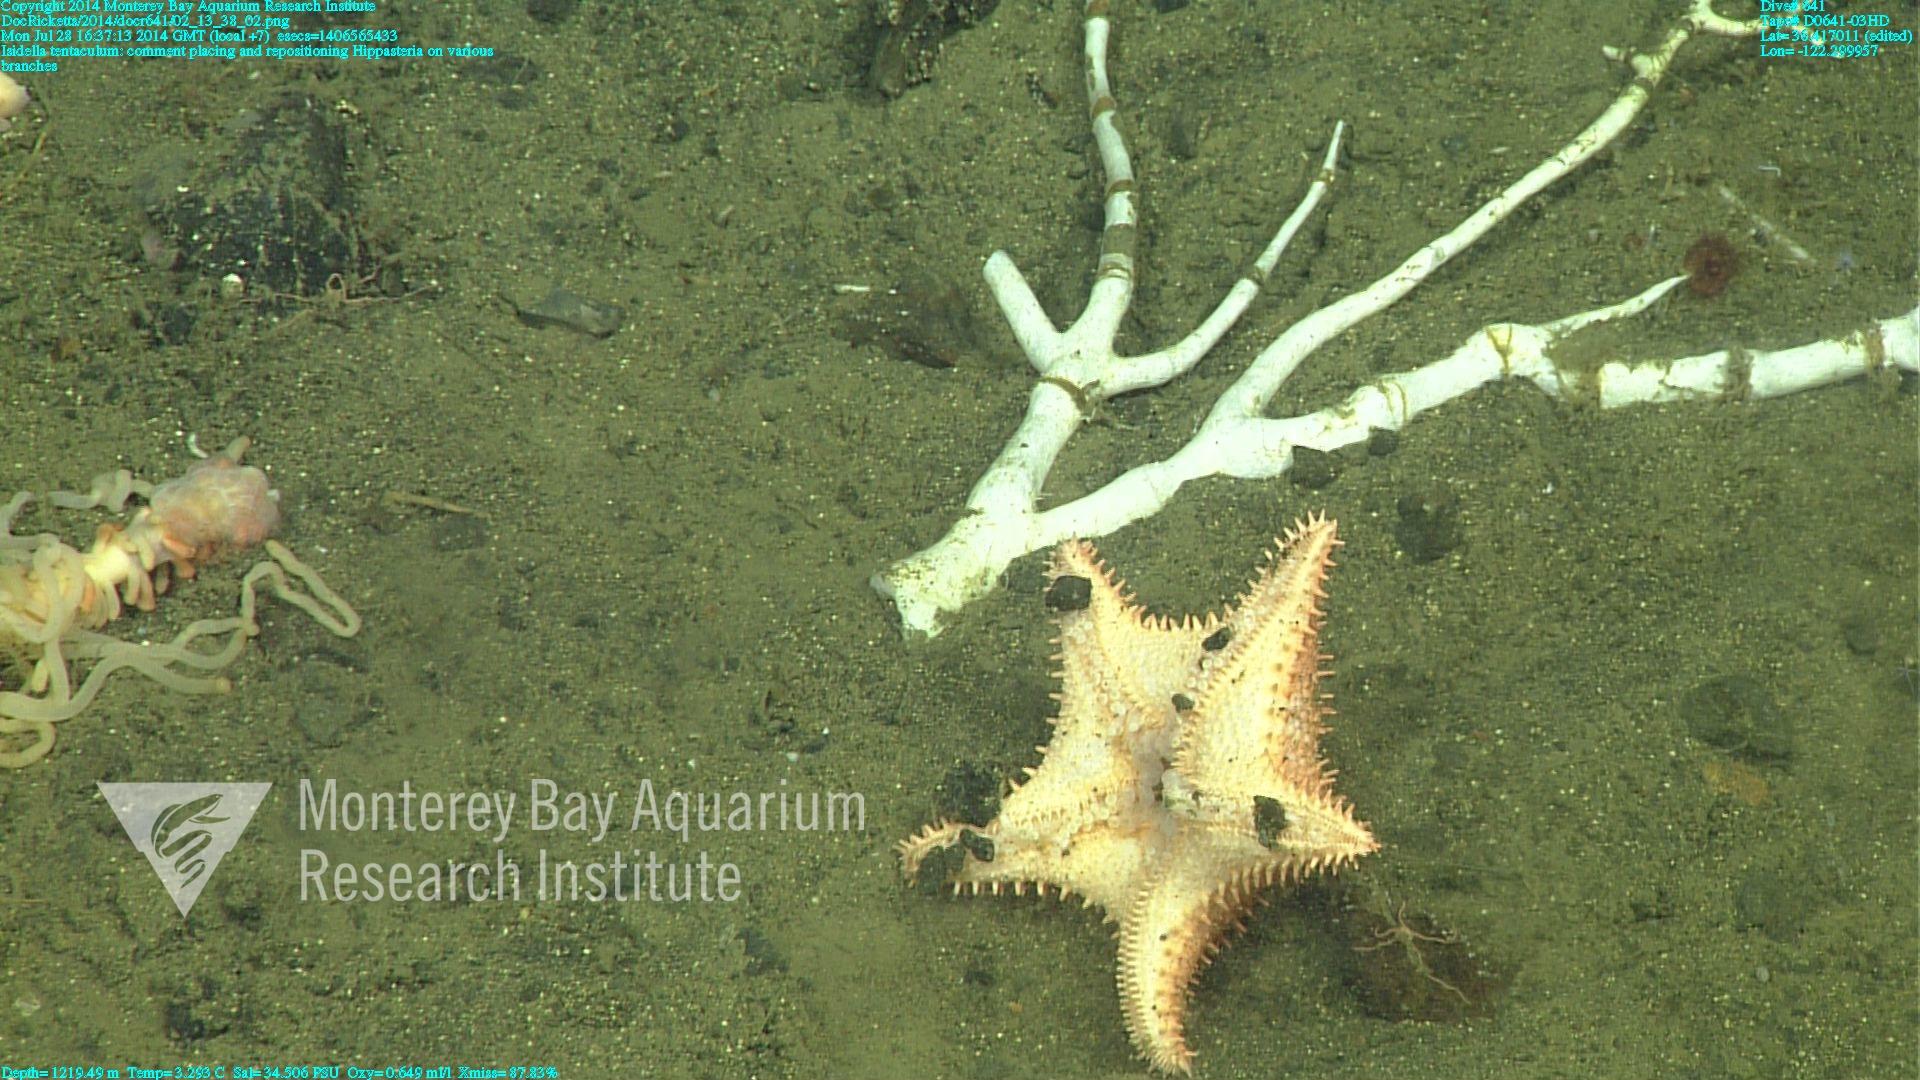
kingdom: Animalia
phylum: Cnidaria
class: Anthozoa
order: Scleralcyonacea
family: Keratoisididae
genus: Isidella
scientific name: Isidella tentaculum
